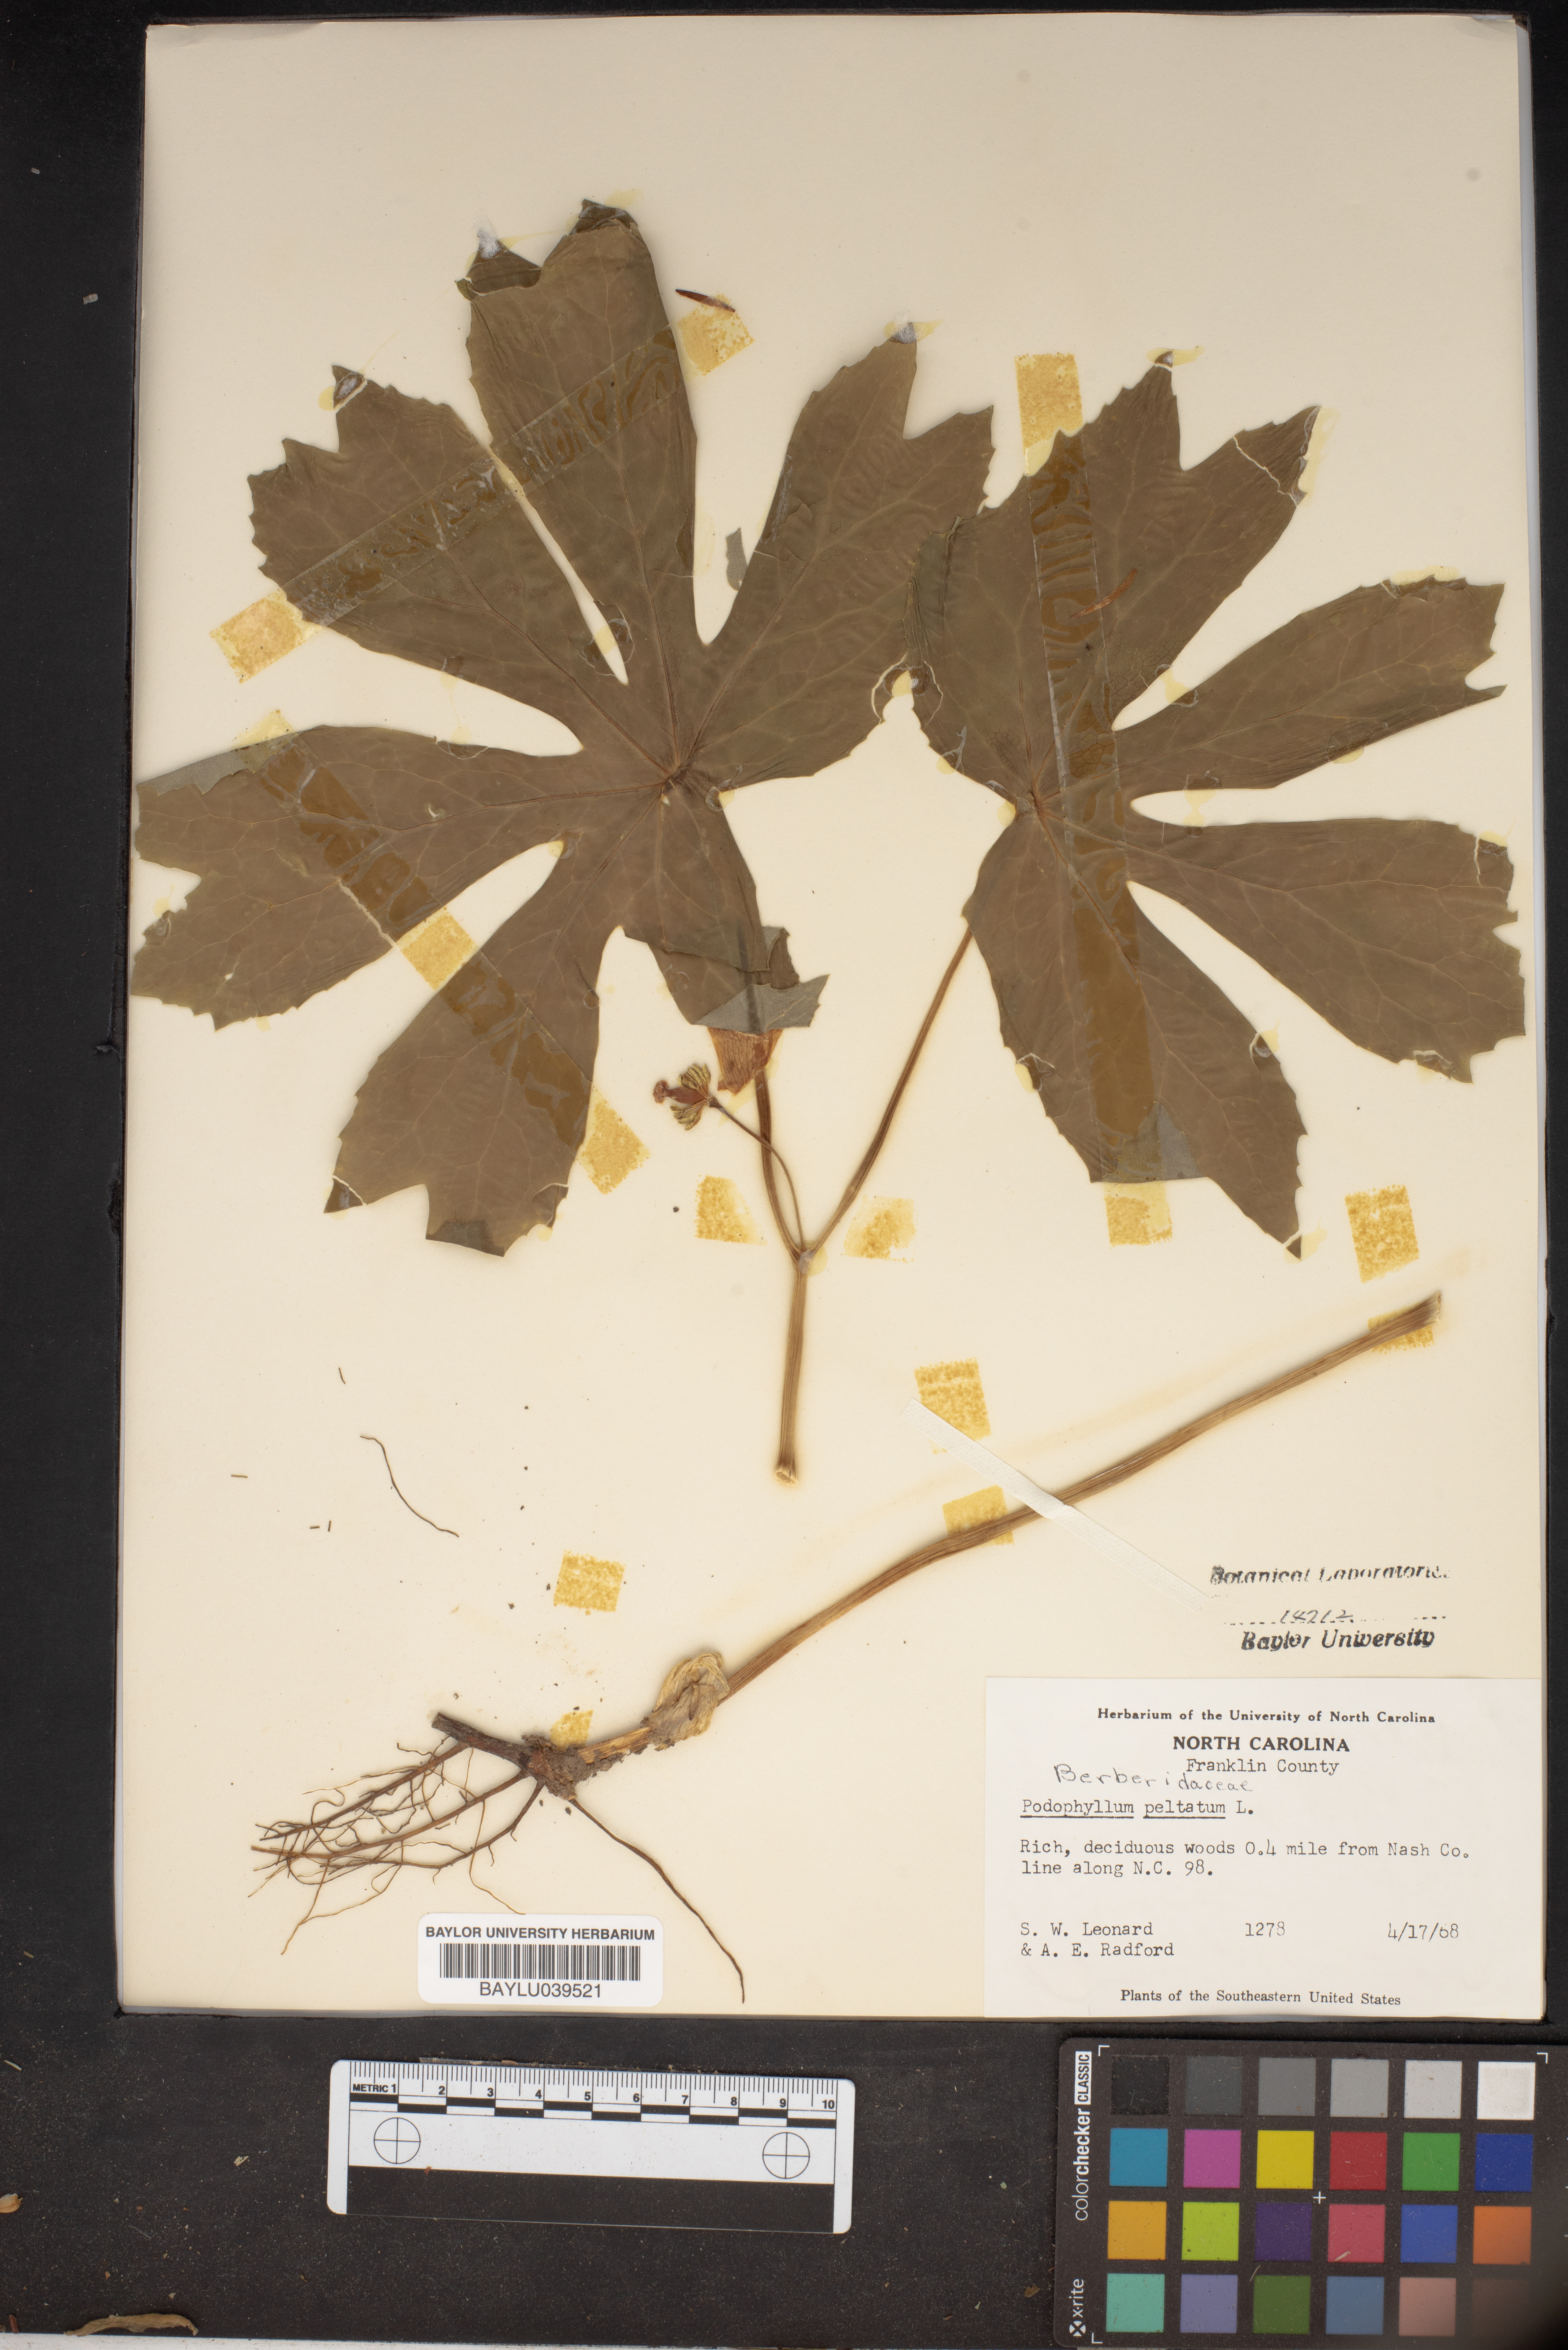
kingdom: Plantae
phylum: Tracheophyta
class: Magnoliopsida
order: Ranunculales
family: Berberidaceae
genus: Podophyllum
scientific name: Podophyllum peltatum
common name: Wild mandrake
